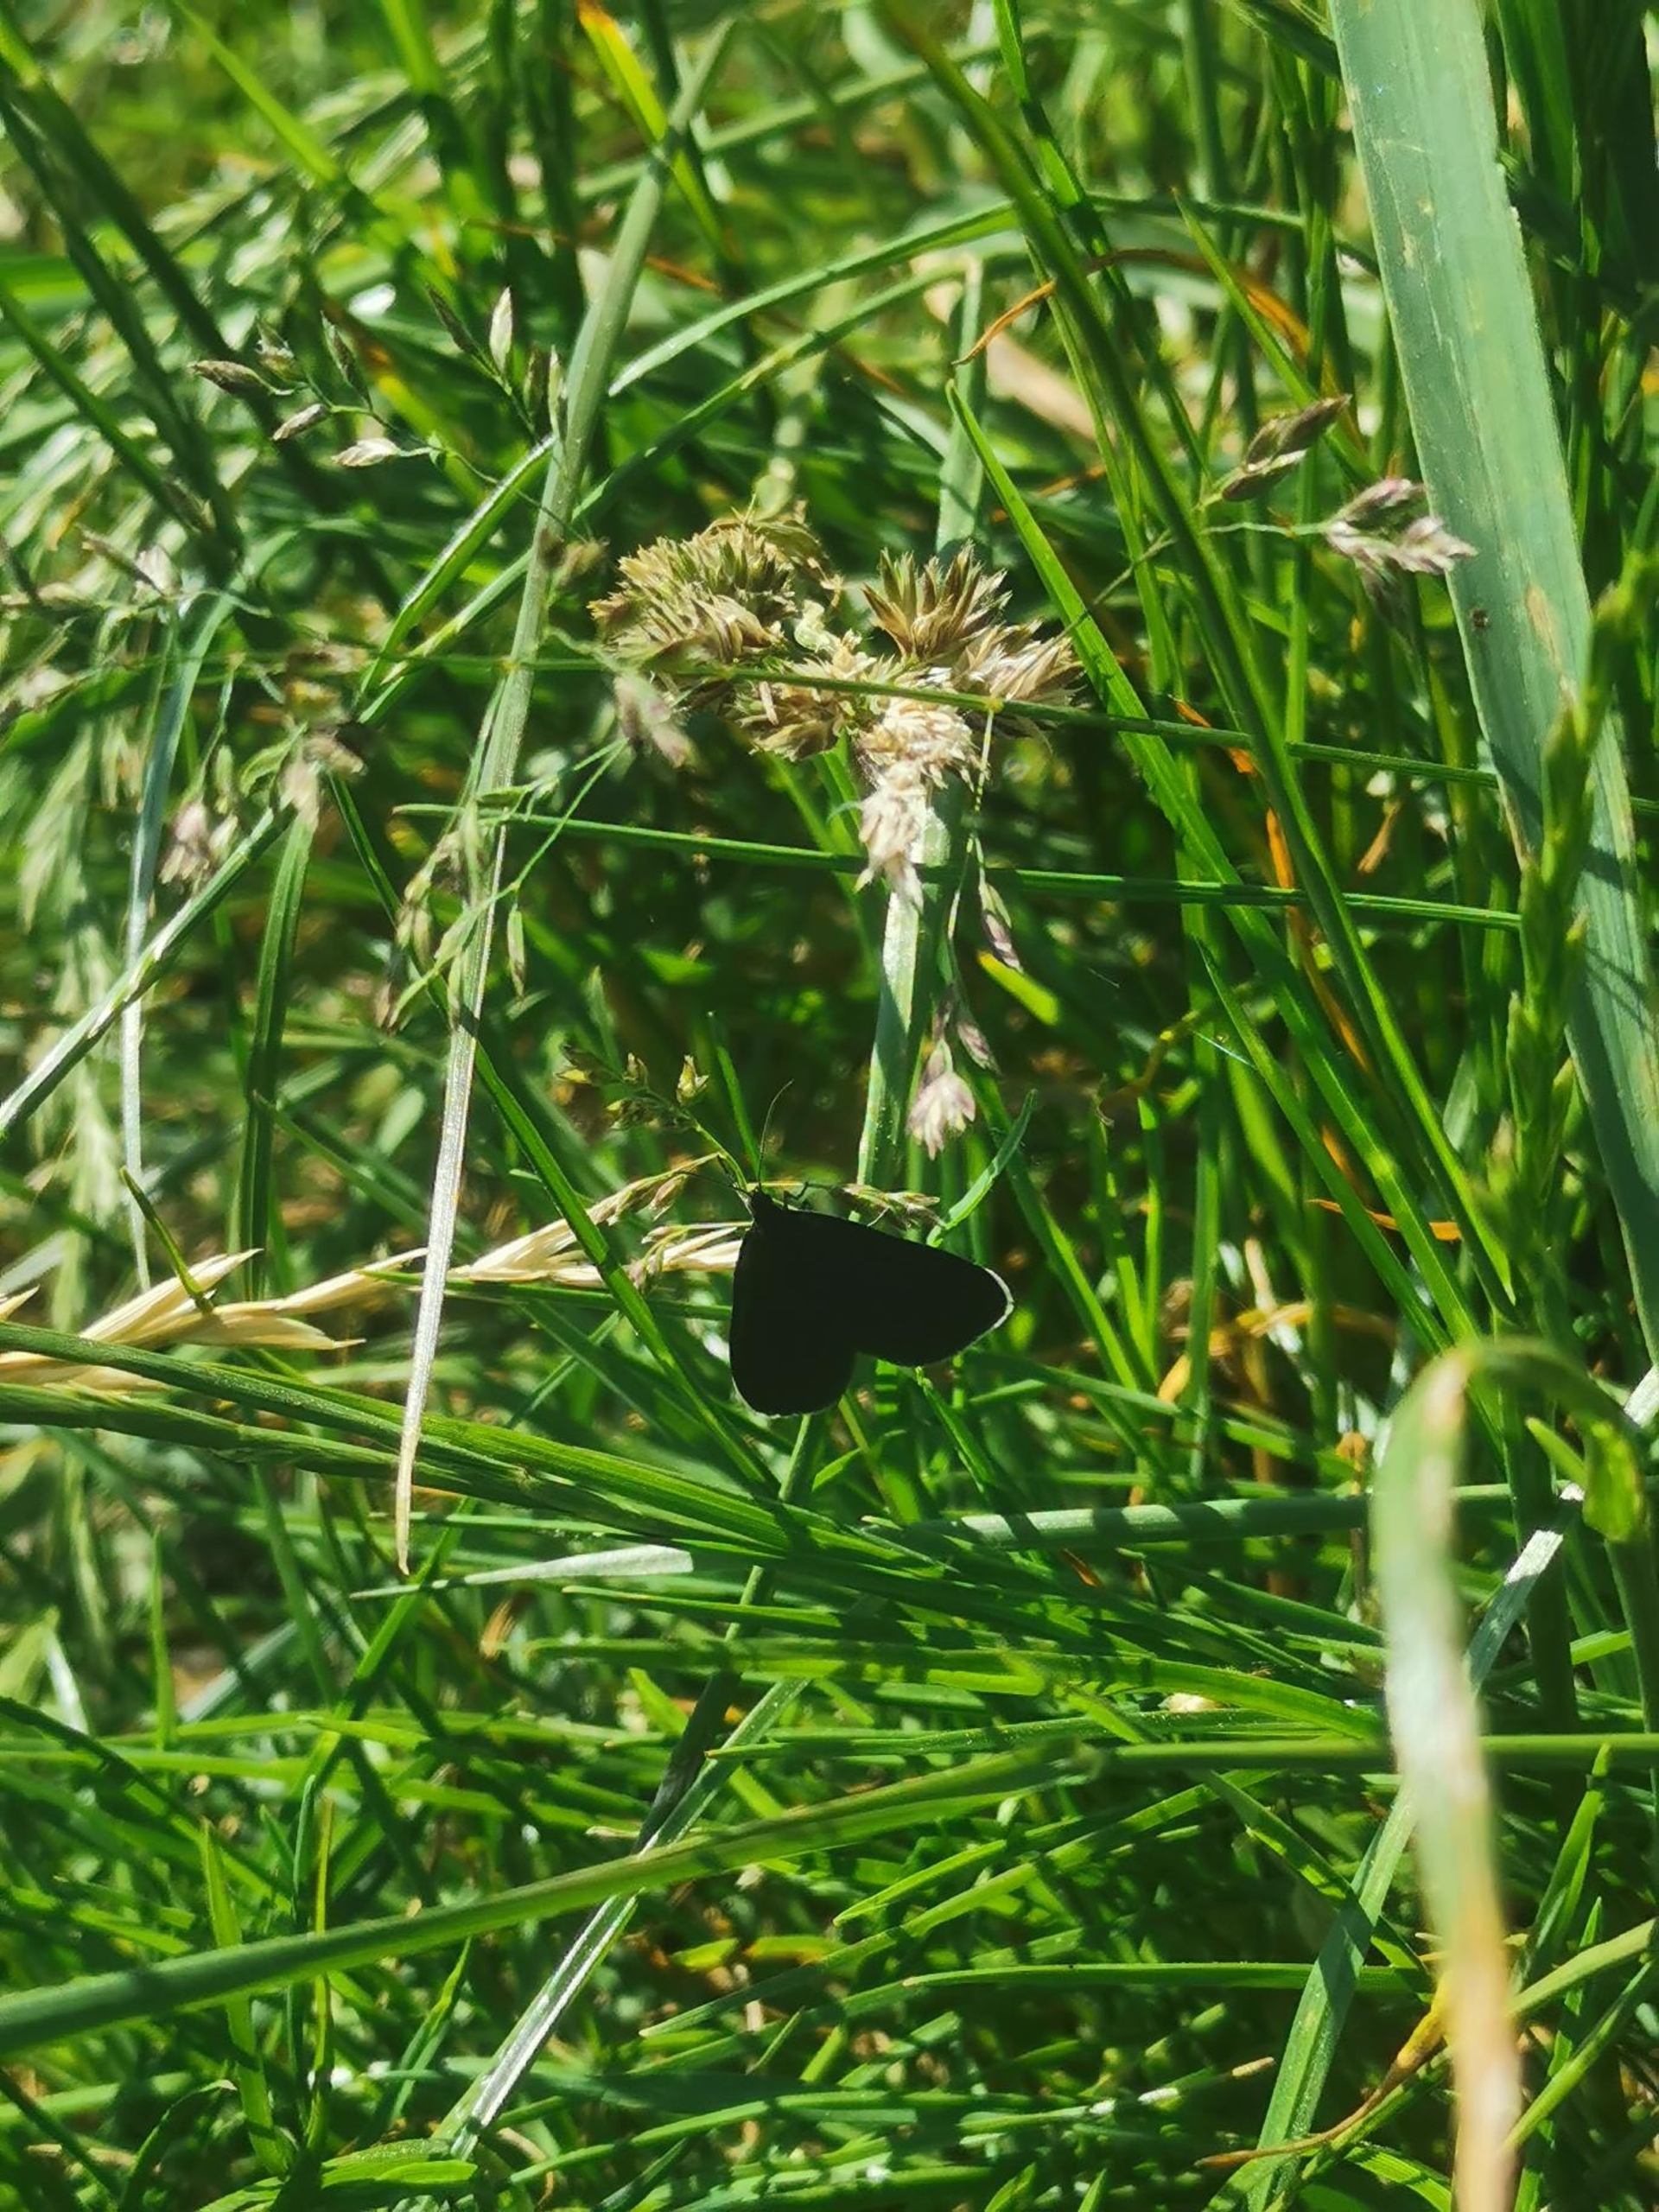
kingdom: Animalia
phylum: Arthropoda
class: Insecta
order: Lepidoptera
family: Geometridae
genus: Odezia
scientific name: Odezia atrata
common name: Sort måler
